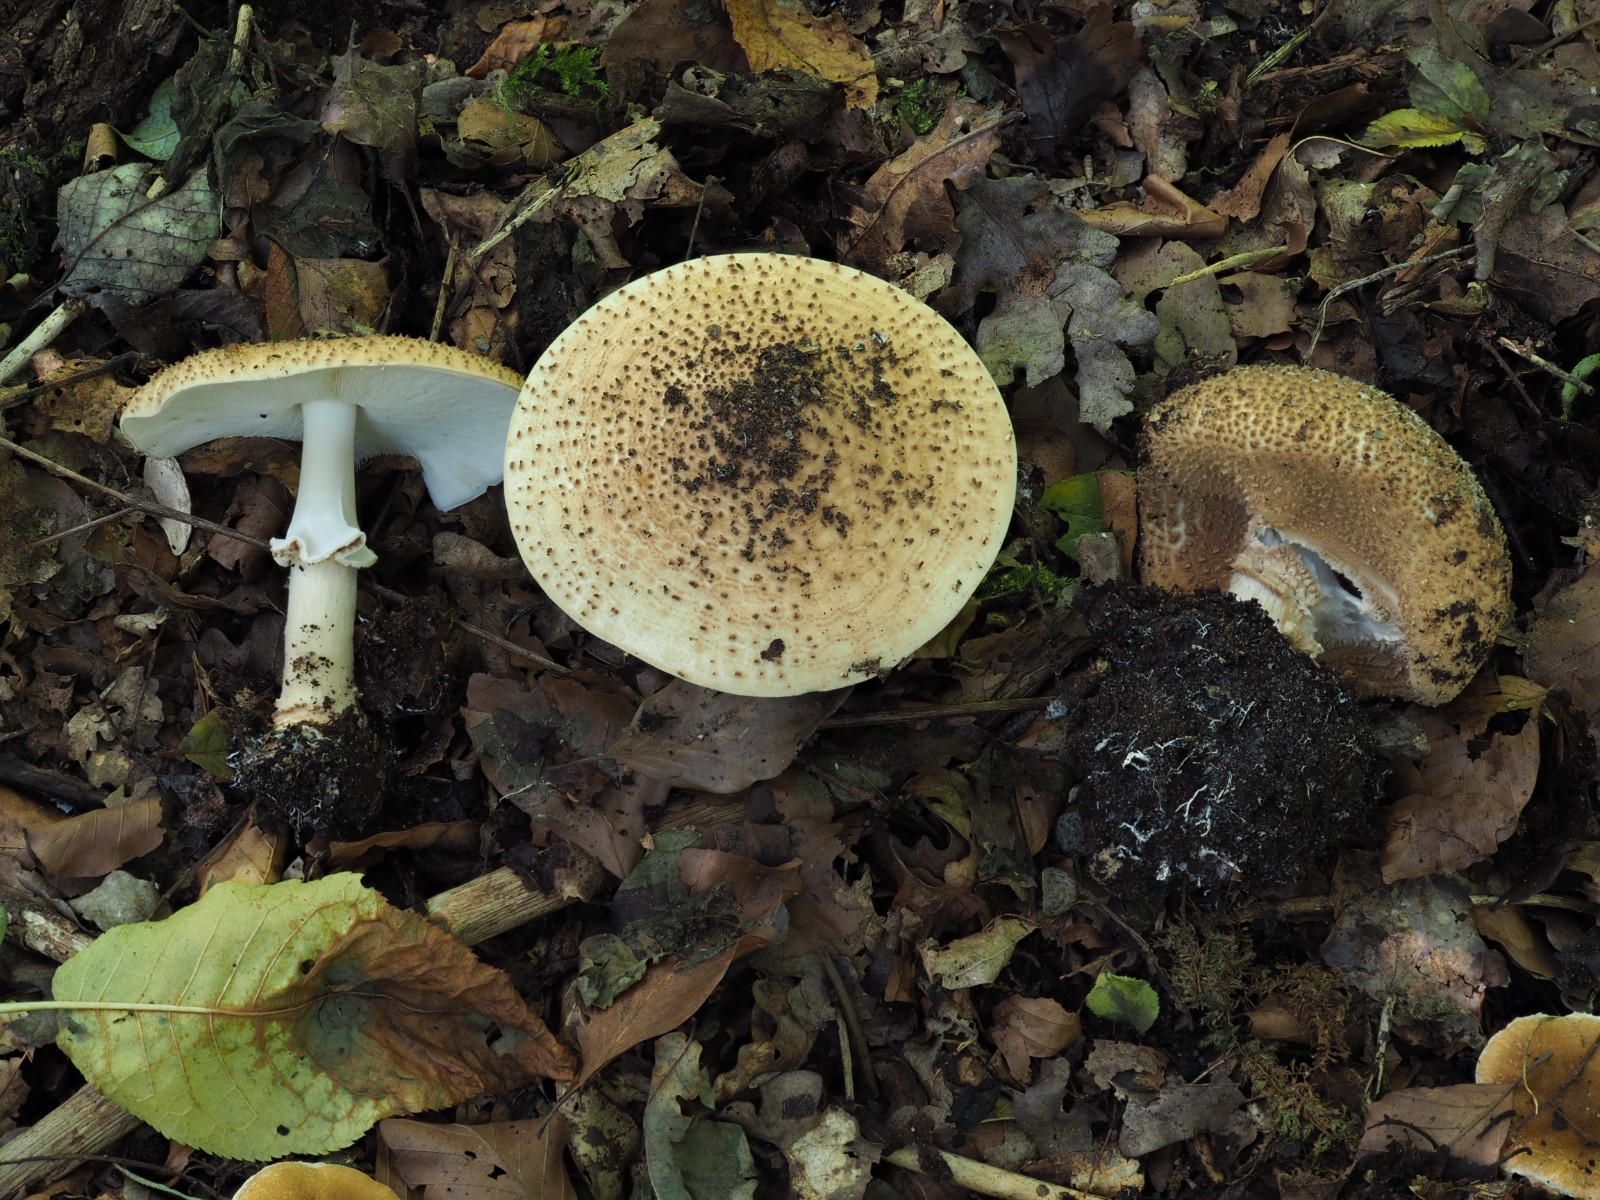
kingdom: Fungi
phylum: Basidiomycota
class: Agaricomycetes
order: Agaricales
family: Agaricaceae
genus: Echinoderma
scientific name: Echinoderma asperum
